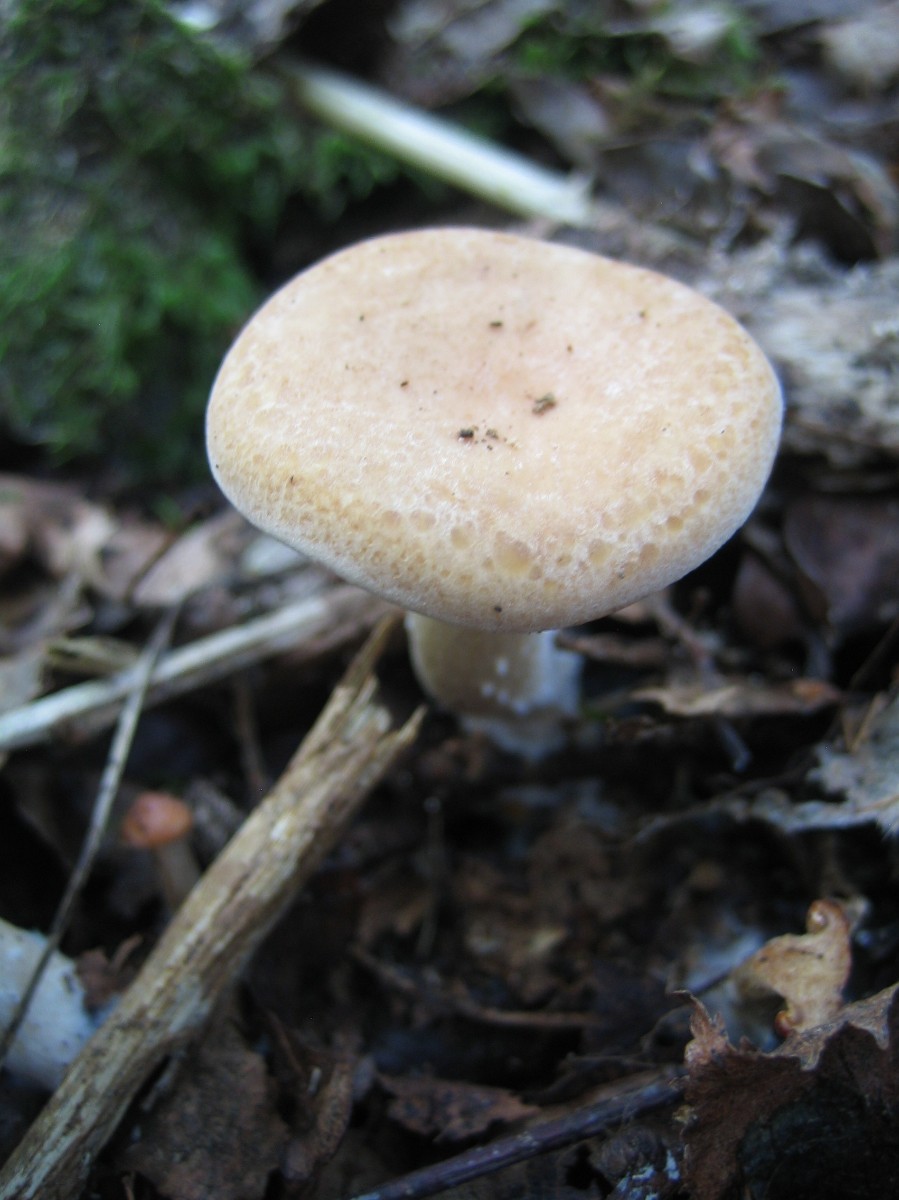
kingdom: Fungi
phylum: Basidiomycota
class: Agaricomycetes
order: Agaricales
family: Tricholomataceae
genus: Paralepista
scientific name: Paralepista gilva
